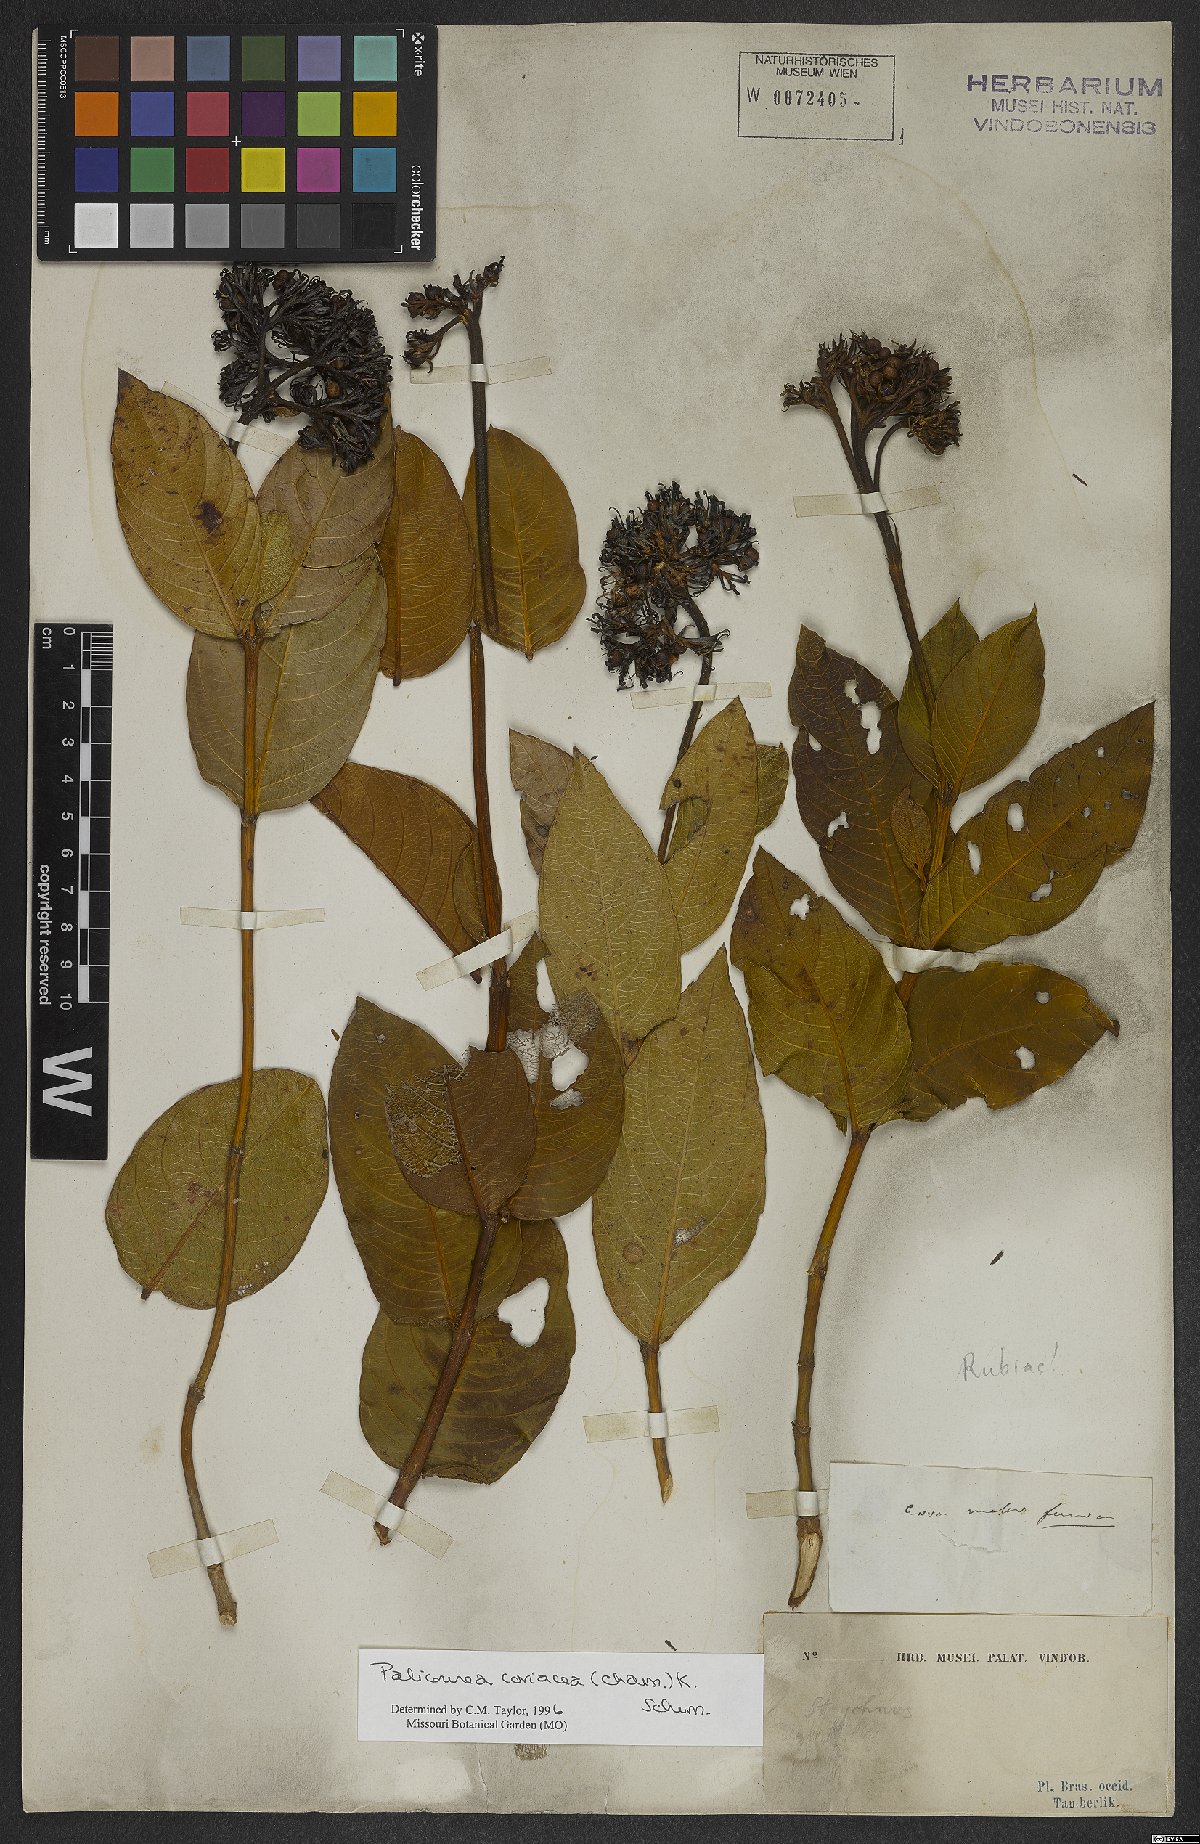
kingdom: Plantae
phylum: Tracheophyta
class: Magnoliopsida
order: Gentianales
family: Rubiaceae
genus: Palicourea
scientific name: Palicourea coriacea
